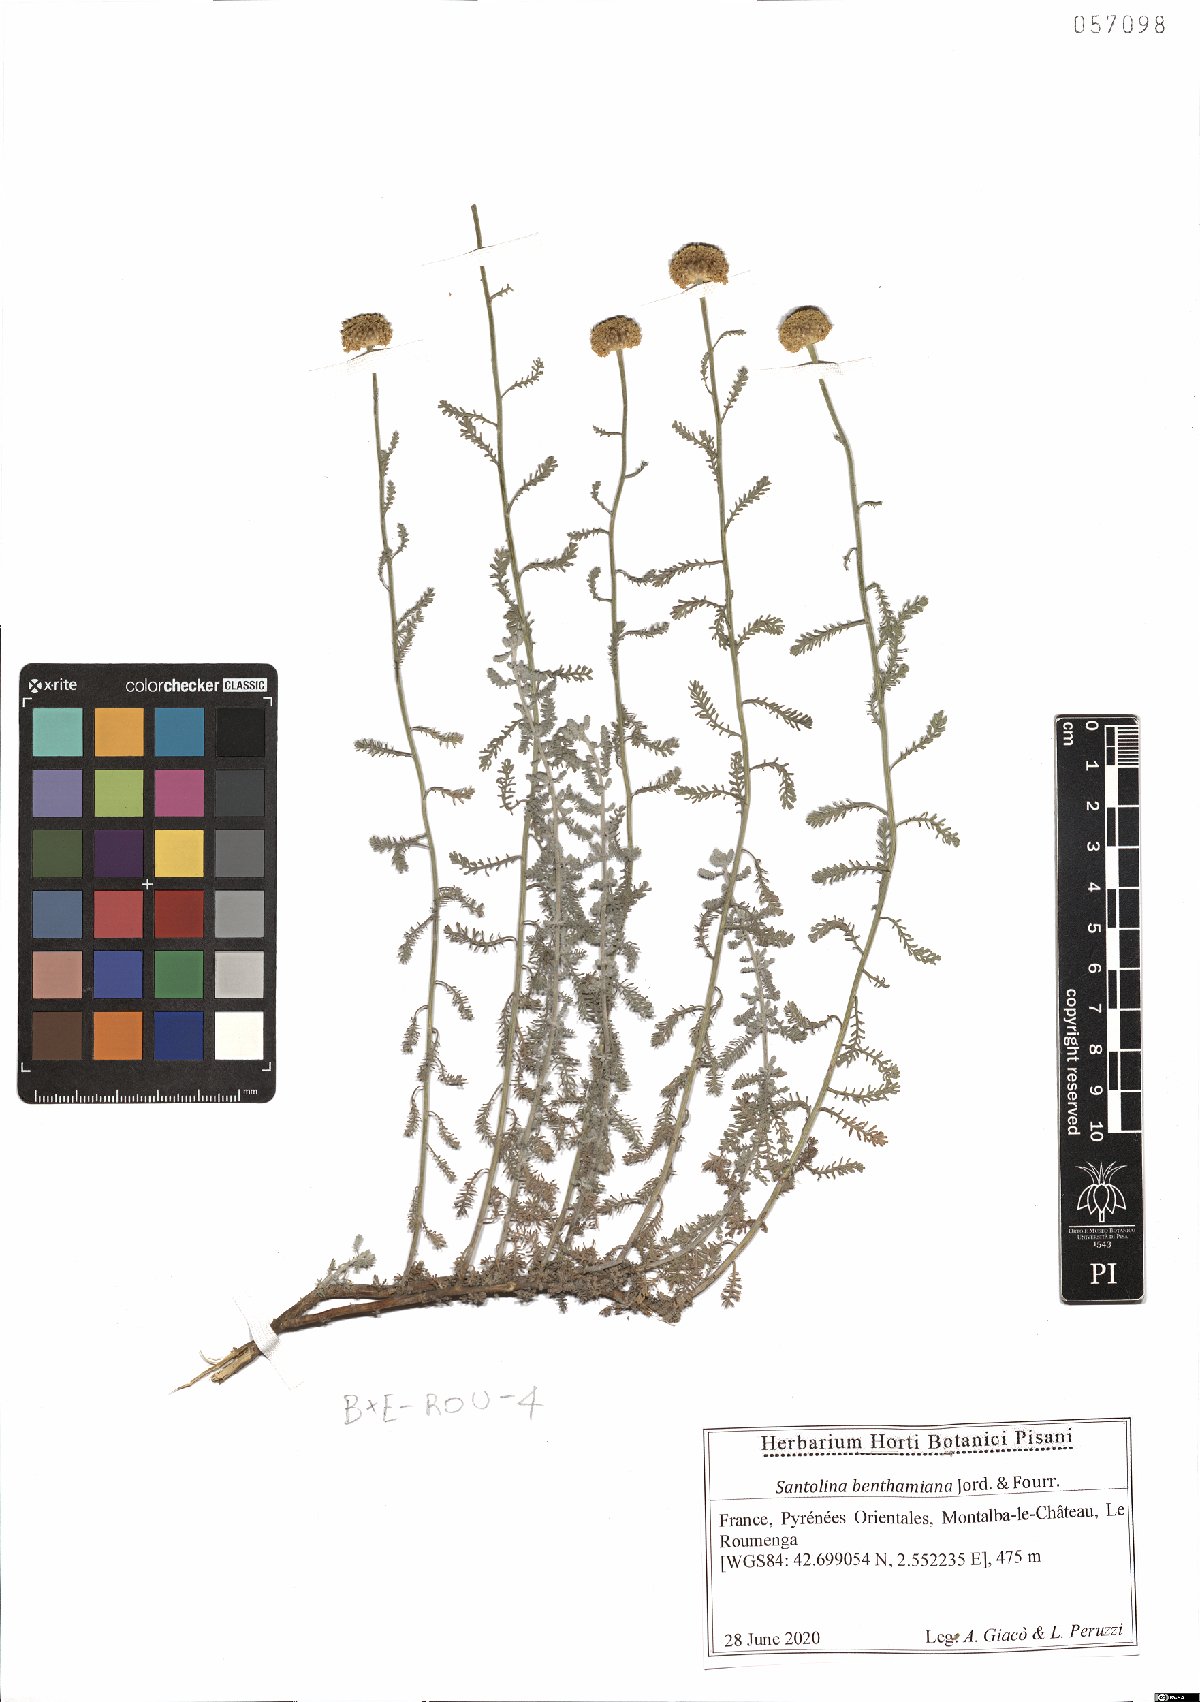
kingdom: Plantae
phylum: Tracheophyta
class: Magnoliopsida
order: Asterales
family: Asteraceae
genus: Santolina
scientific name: Santolina benthamiana
